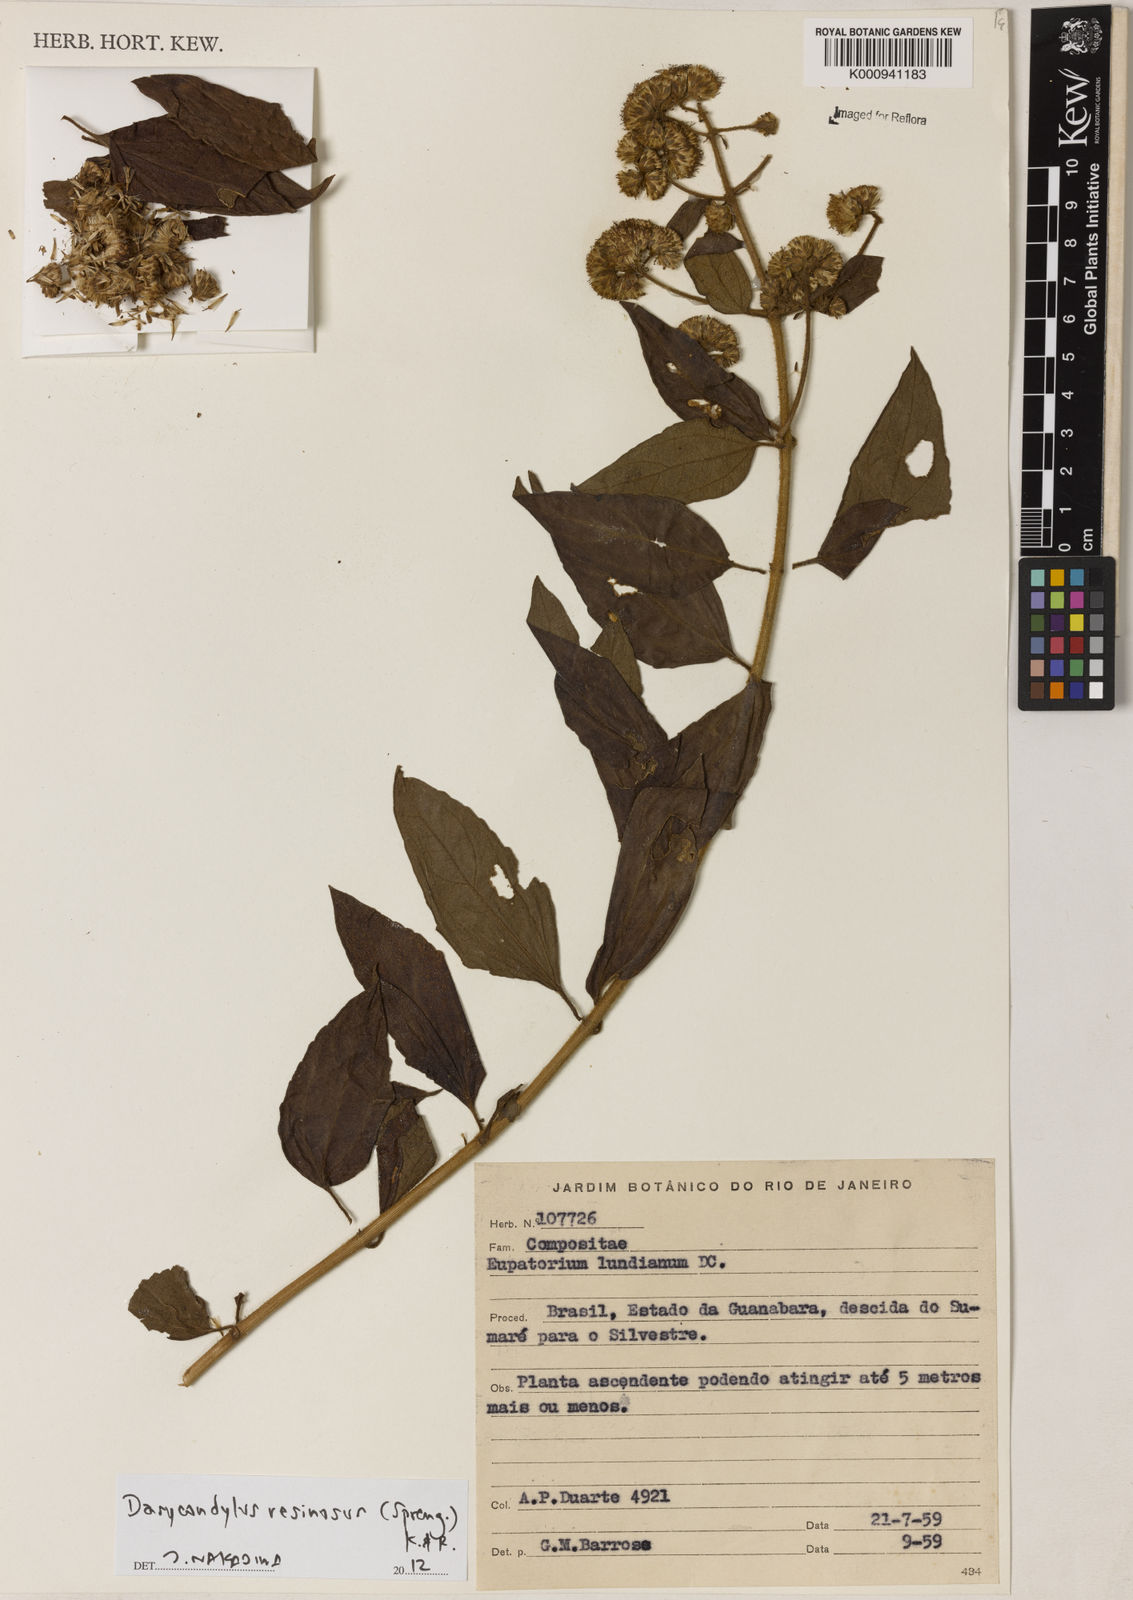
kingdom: Plantae
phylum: Tracheophyta
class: Magnoliopsida
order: Asterales
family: Asteraceae
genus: Dasycondylus
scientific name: Dasycondylus resinosus
